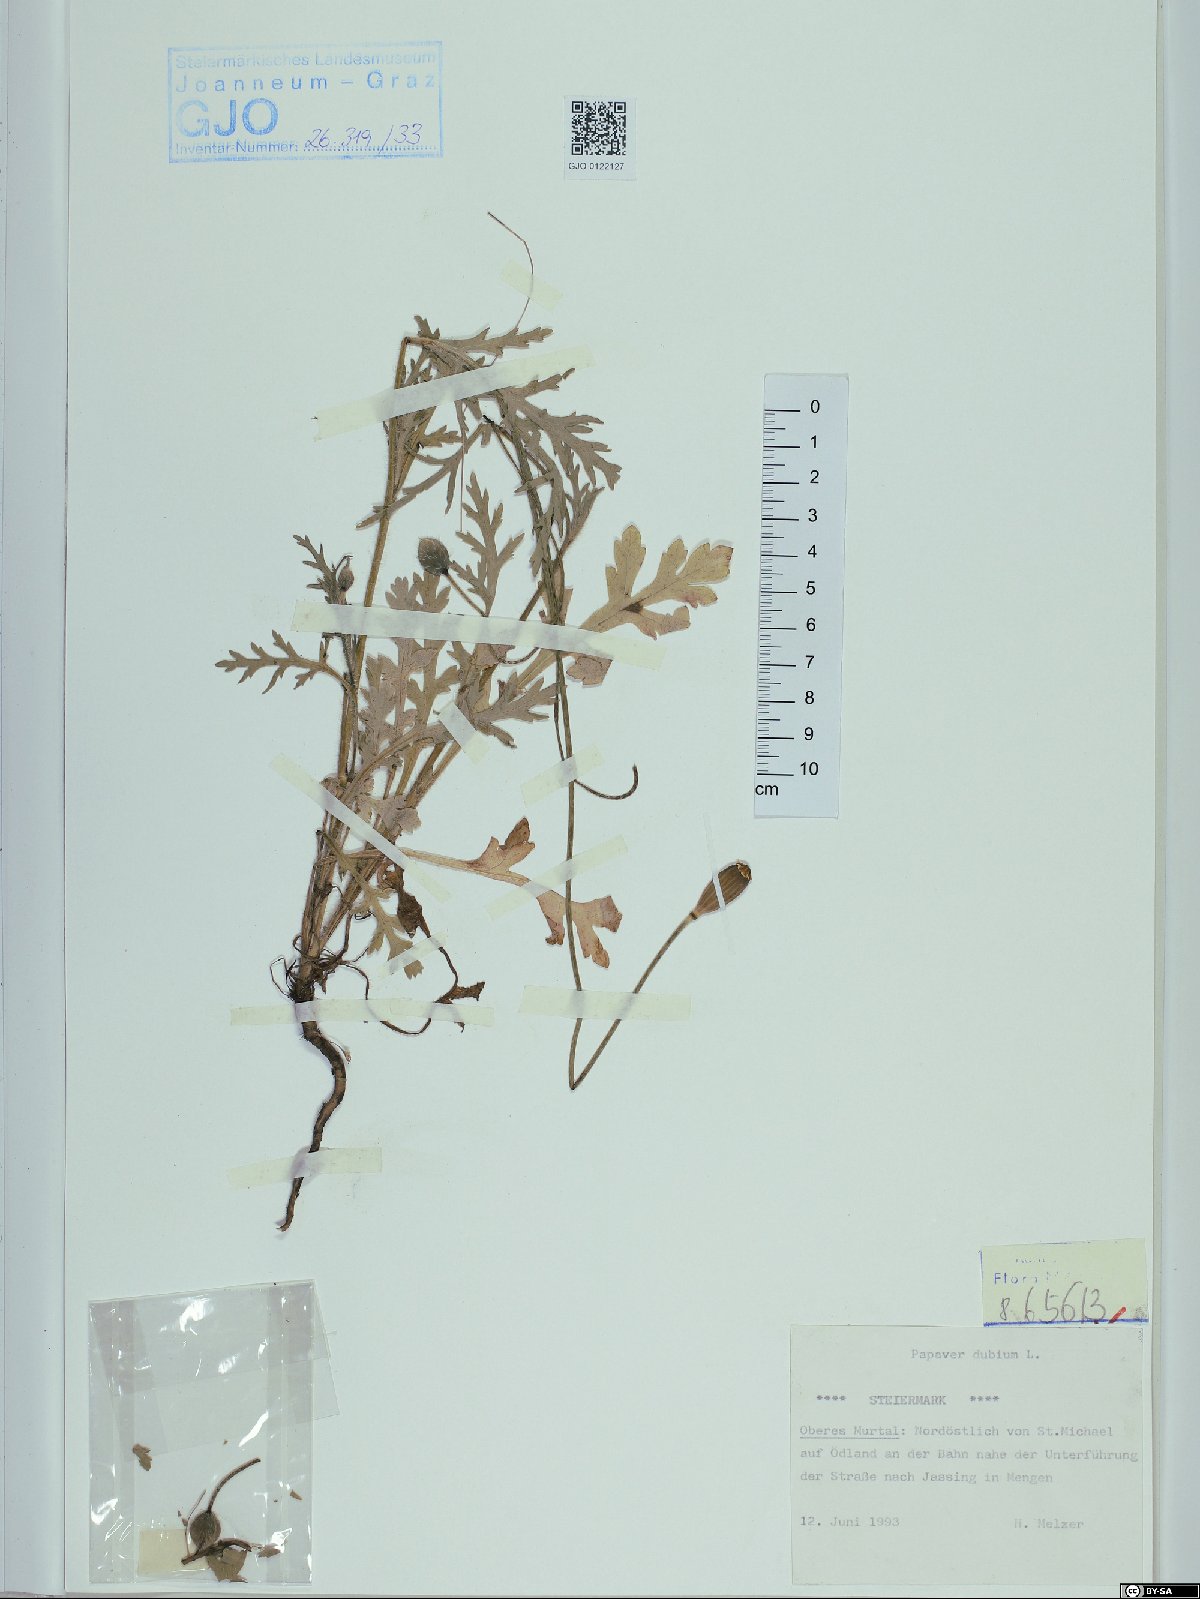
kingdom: Plantae
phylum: Tracheophyta
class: Magnoliopsida
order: Ranunculales
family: Papaveraceae
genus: Papaver
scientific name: Papaver dubium
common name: Long-headed poppy
